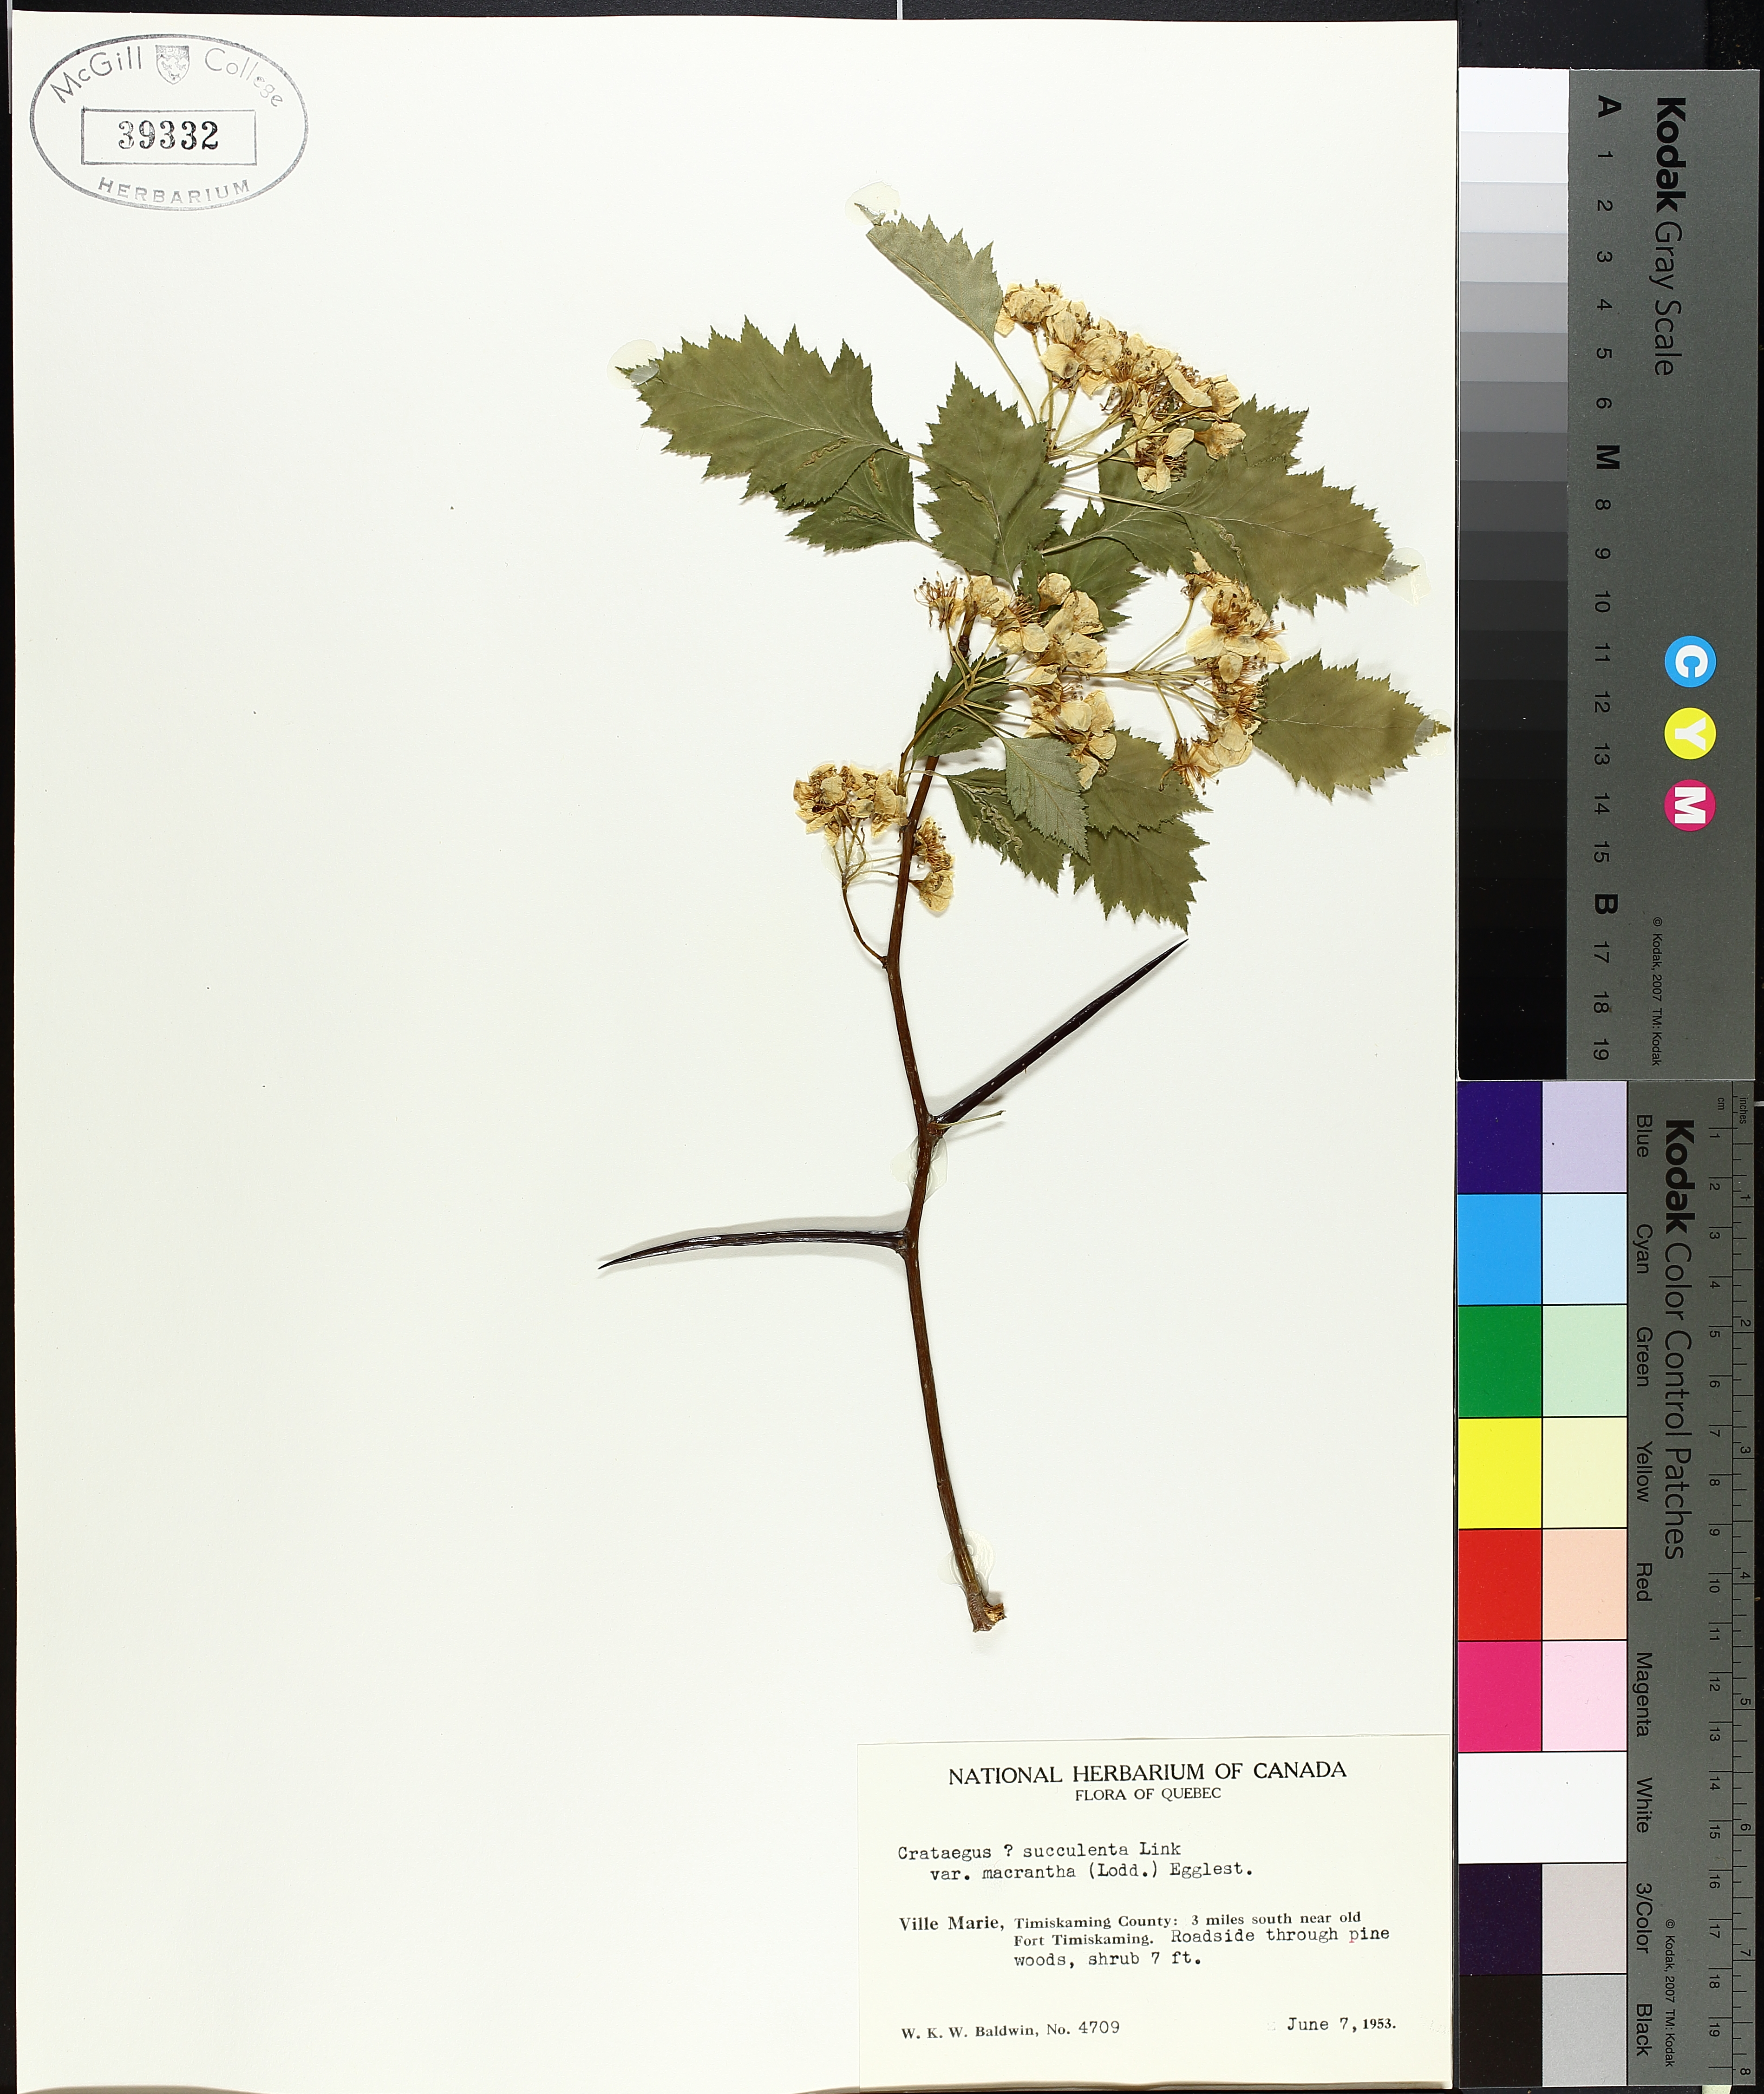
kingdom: Plantae
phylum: Tracheophyta
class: Magnoliopsida
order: Rosales
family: Rosaceae
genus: Crataegus
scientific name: Crataegus succulenta
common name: Fleshy hawthorn
